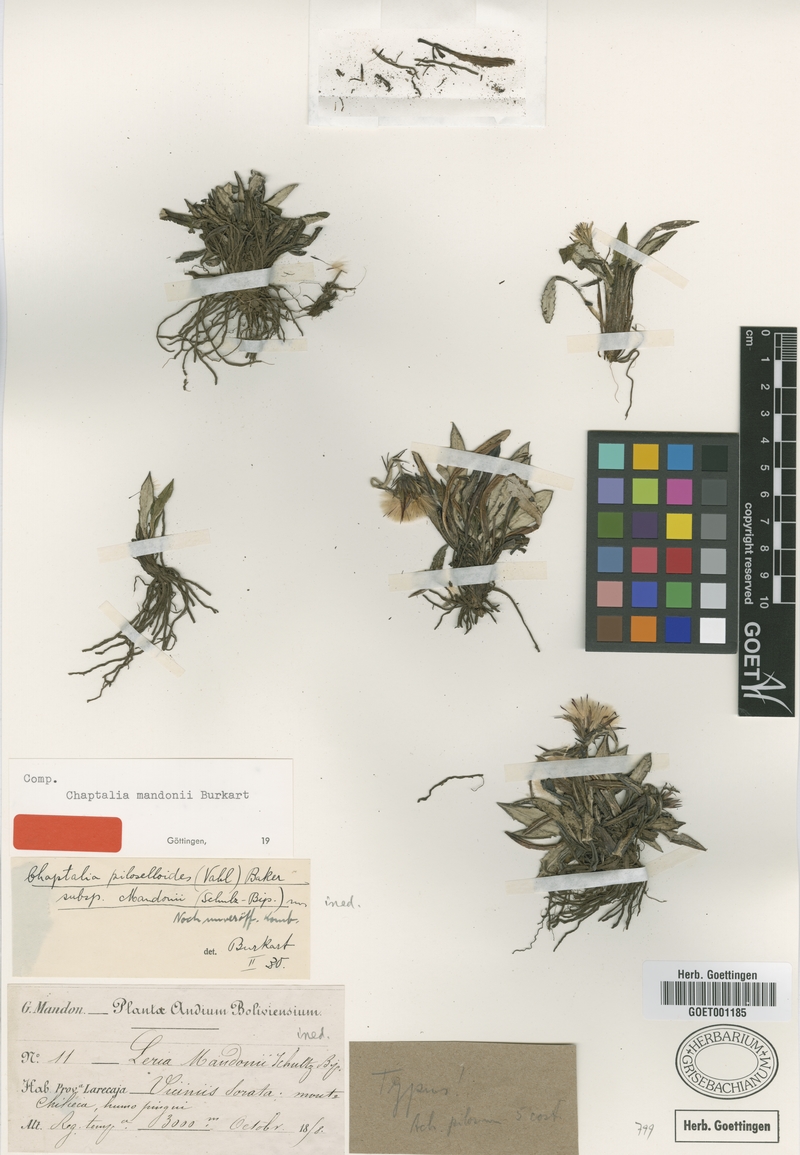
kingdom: Plantae
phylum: Tracheophyta
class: Magnoliopsida
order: Asterales
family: Asteraceae
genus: Chaptalia
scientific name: Chaptalia mandonii
